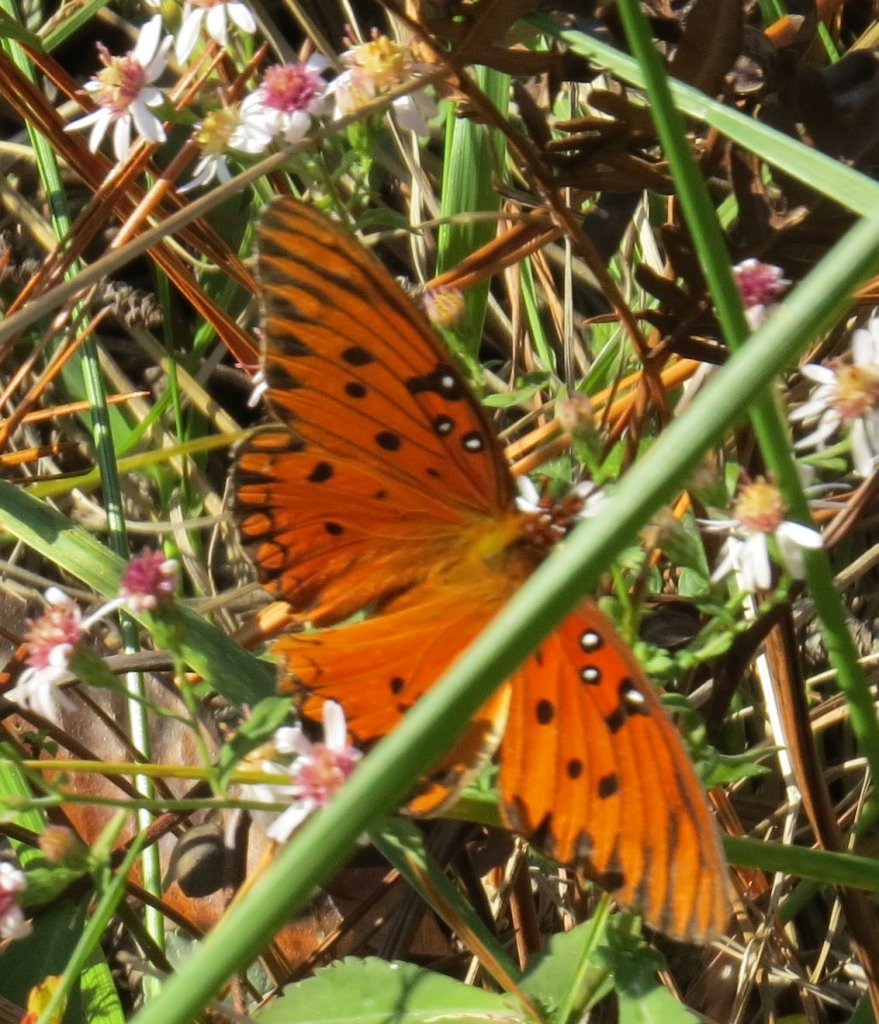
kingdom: Animalia
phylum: Arthropoda
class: Insecta
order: Lepidoptera
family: Nymphalidae
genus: Dione
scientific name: Dione vanillae
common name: Gulf Fritillary
